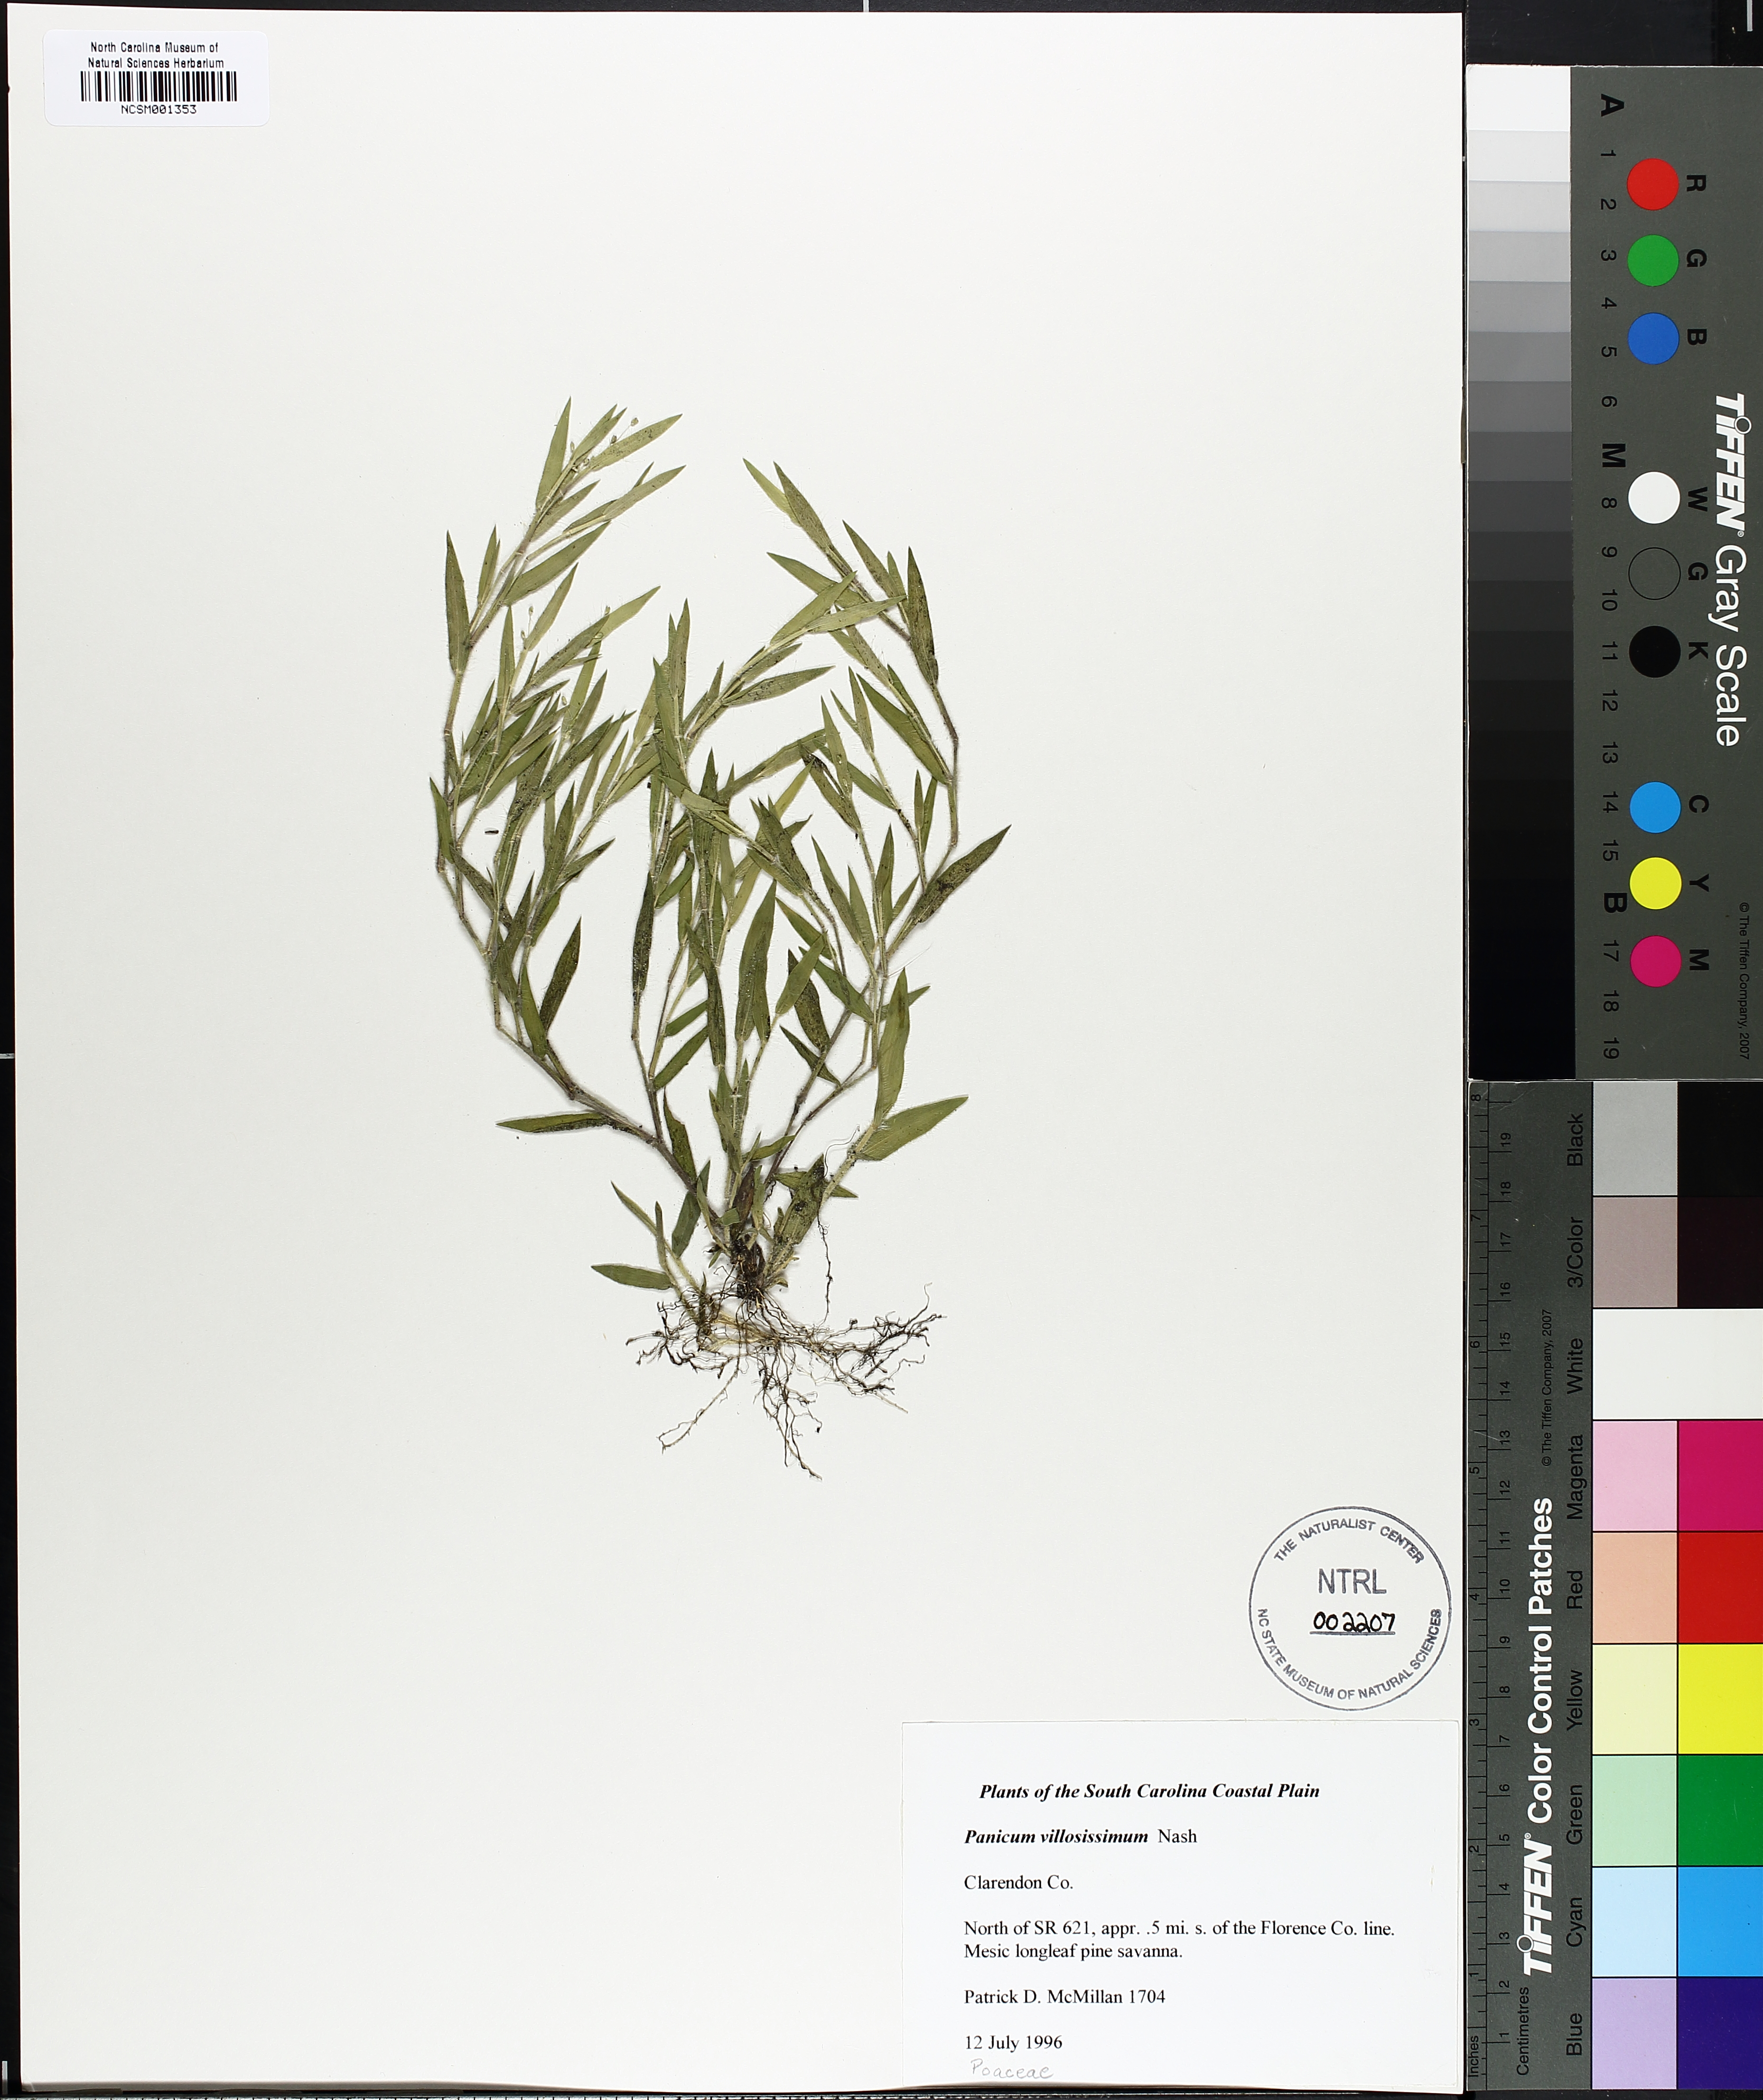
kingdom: Plantae
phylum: Tracheophyta
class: Liliopsida
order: Poales
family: Poaceae
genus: Dichanthelium
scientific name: Dichanthelium villosissimum
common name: White-haired panicgrass
